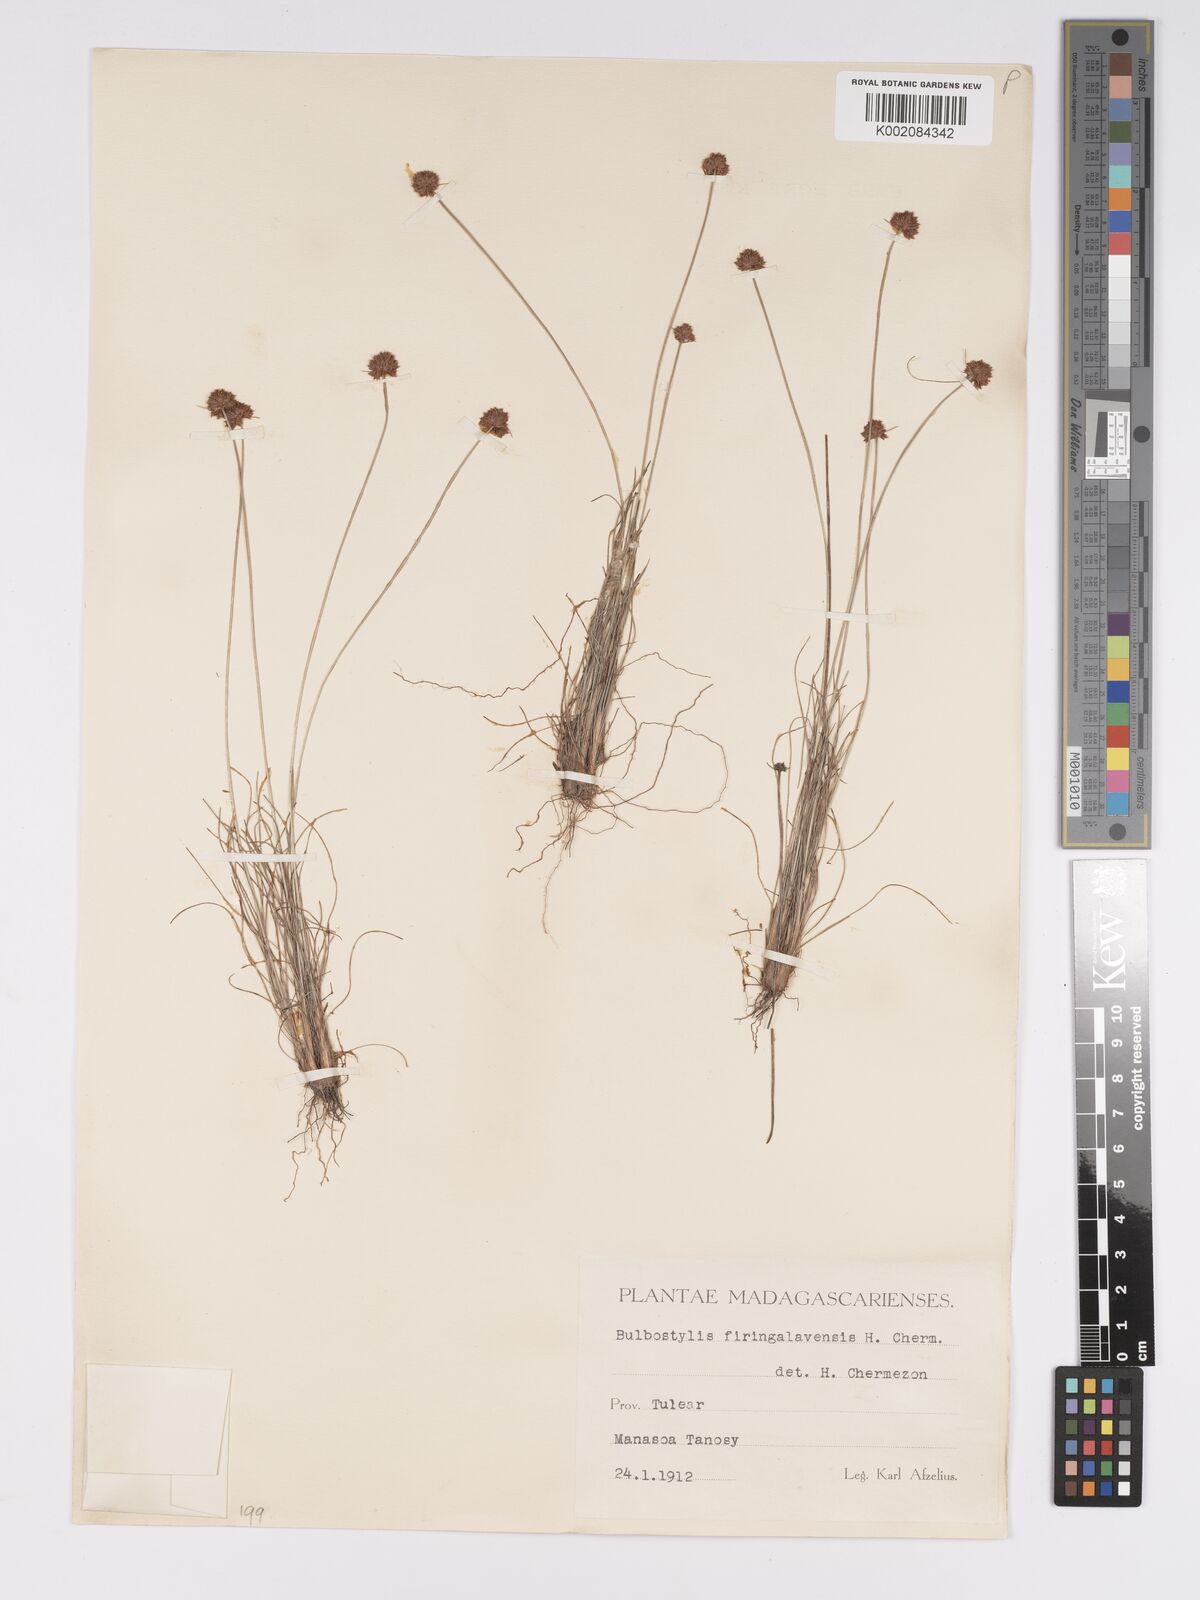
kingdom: Plantae
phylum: Tracheophyta
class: Liliopsida
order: Poales
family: Cyperaceae
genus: Bulbostylis
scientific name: Bulbostylis firingalavensis
